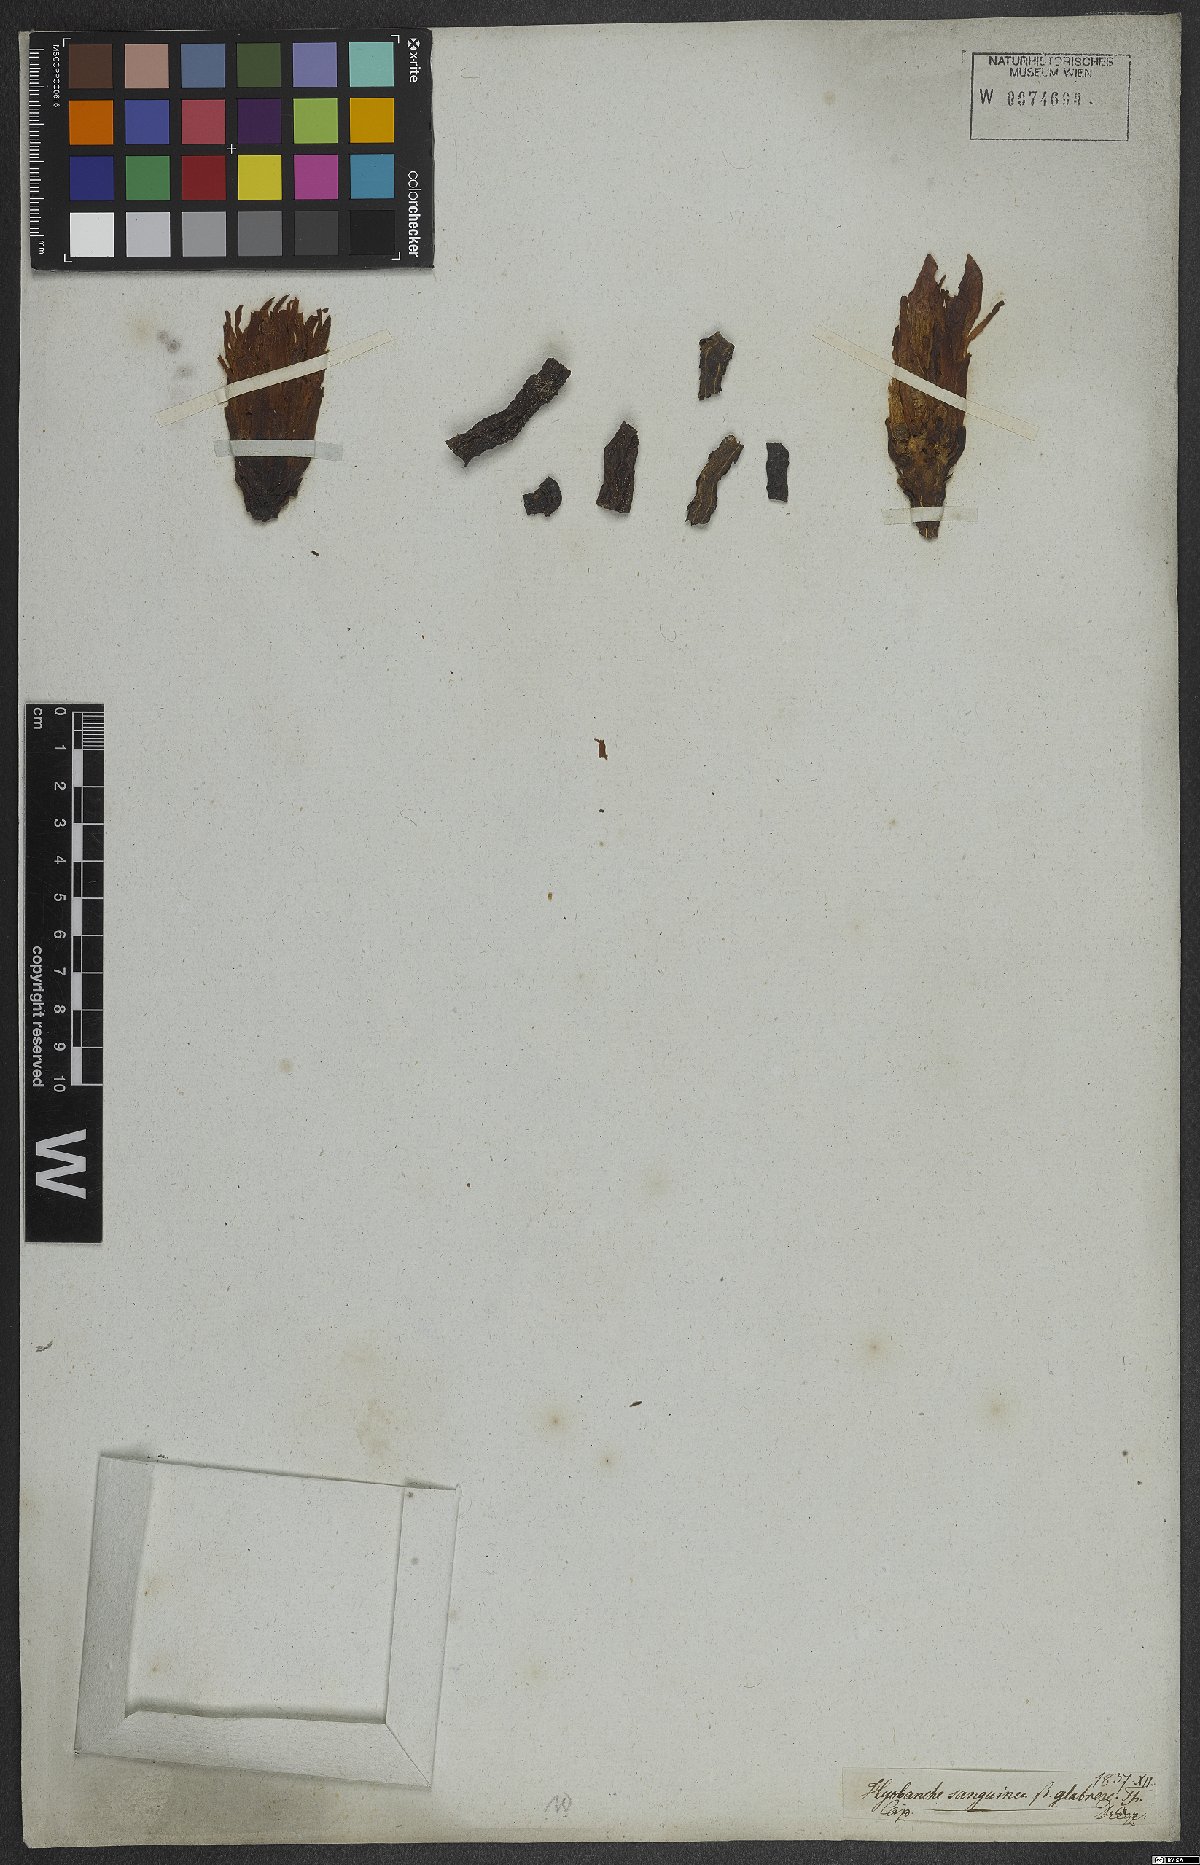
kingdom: Plantae
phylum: Tracheophyta
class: Magnoliopsida
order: Lamiales
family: Orobanchaceae
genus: Hyobanche
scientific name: Hyobanche sanguinea
